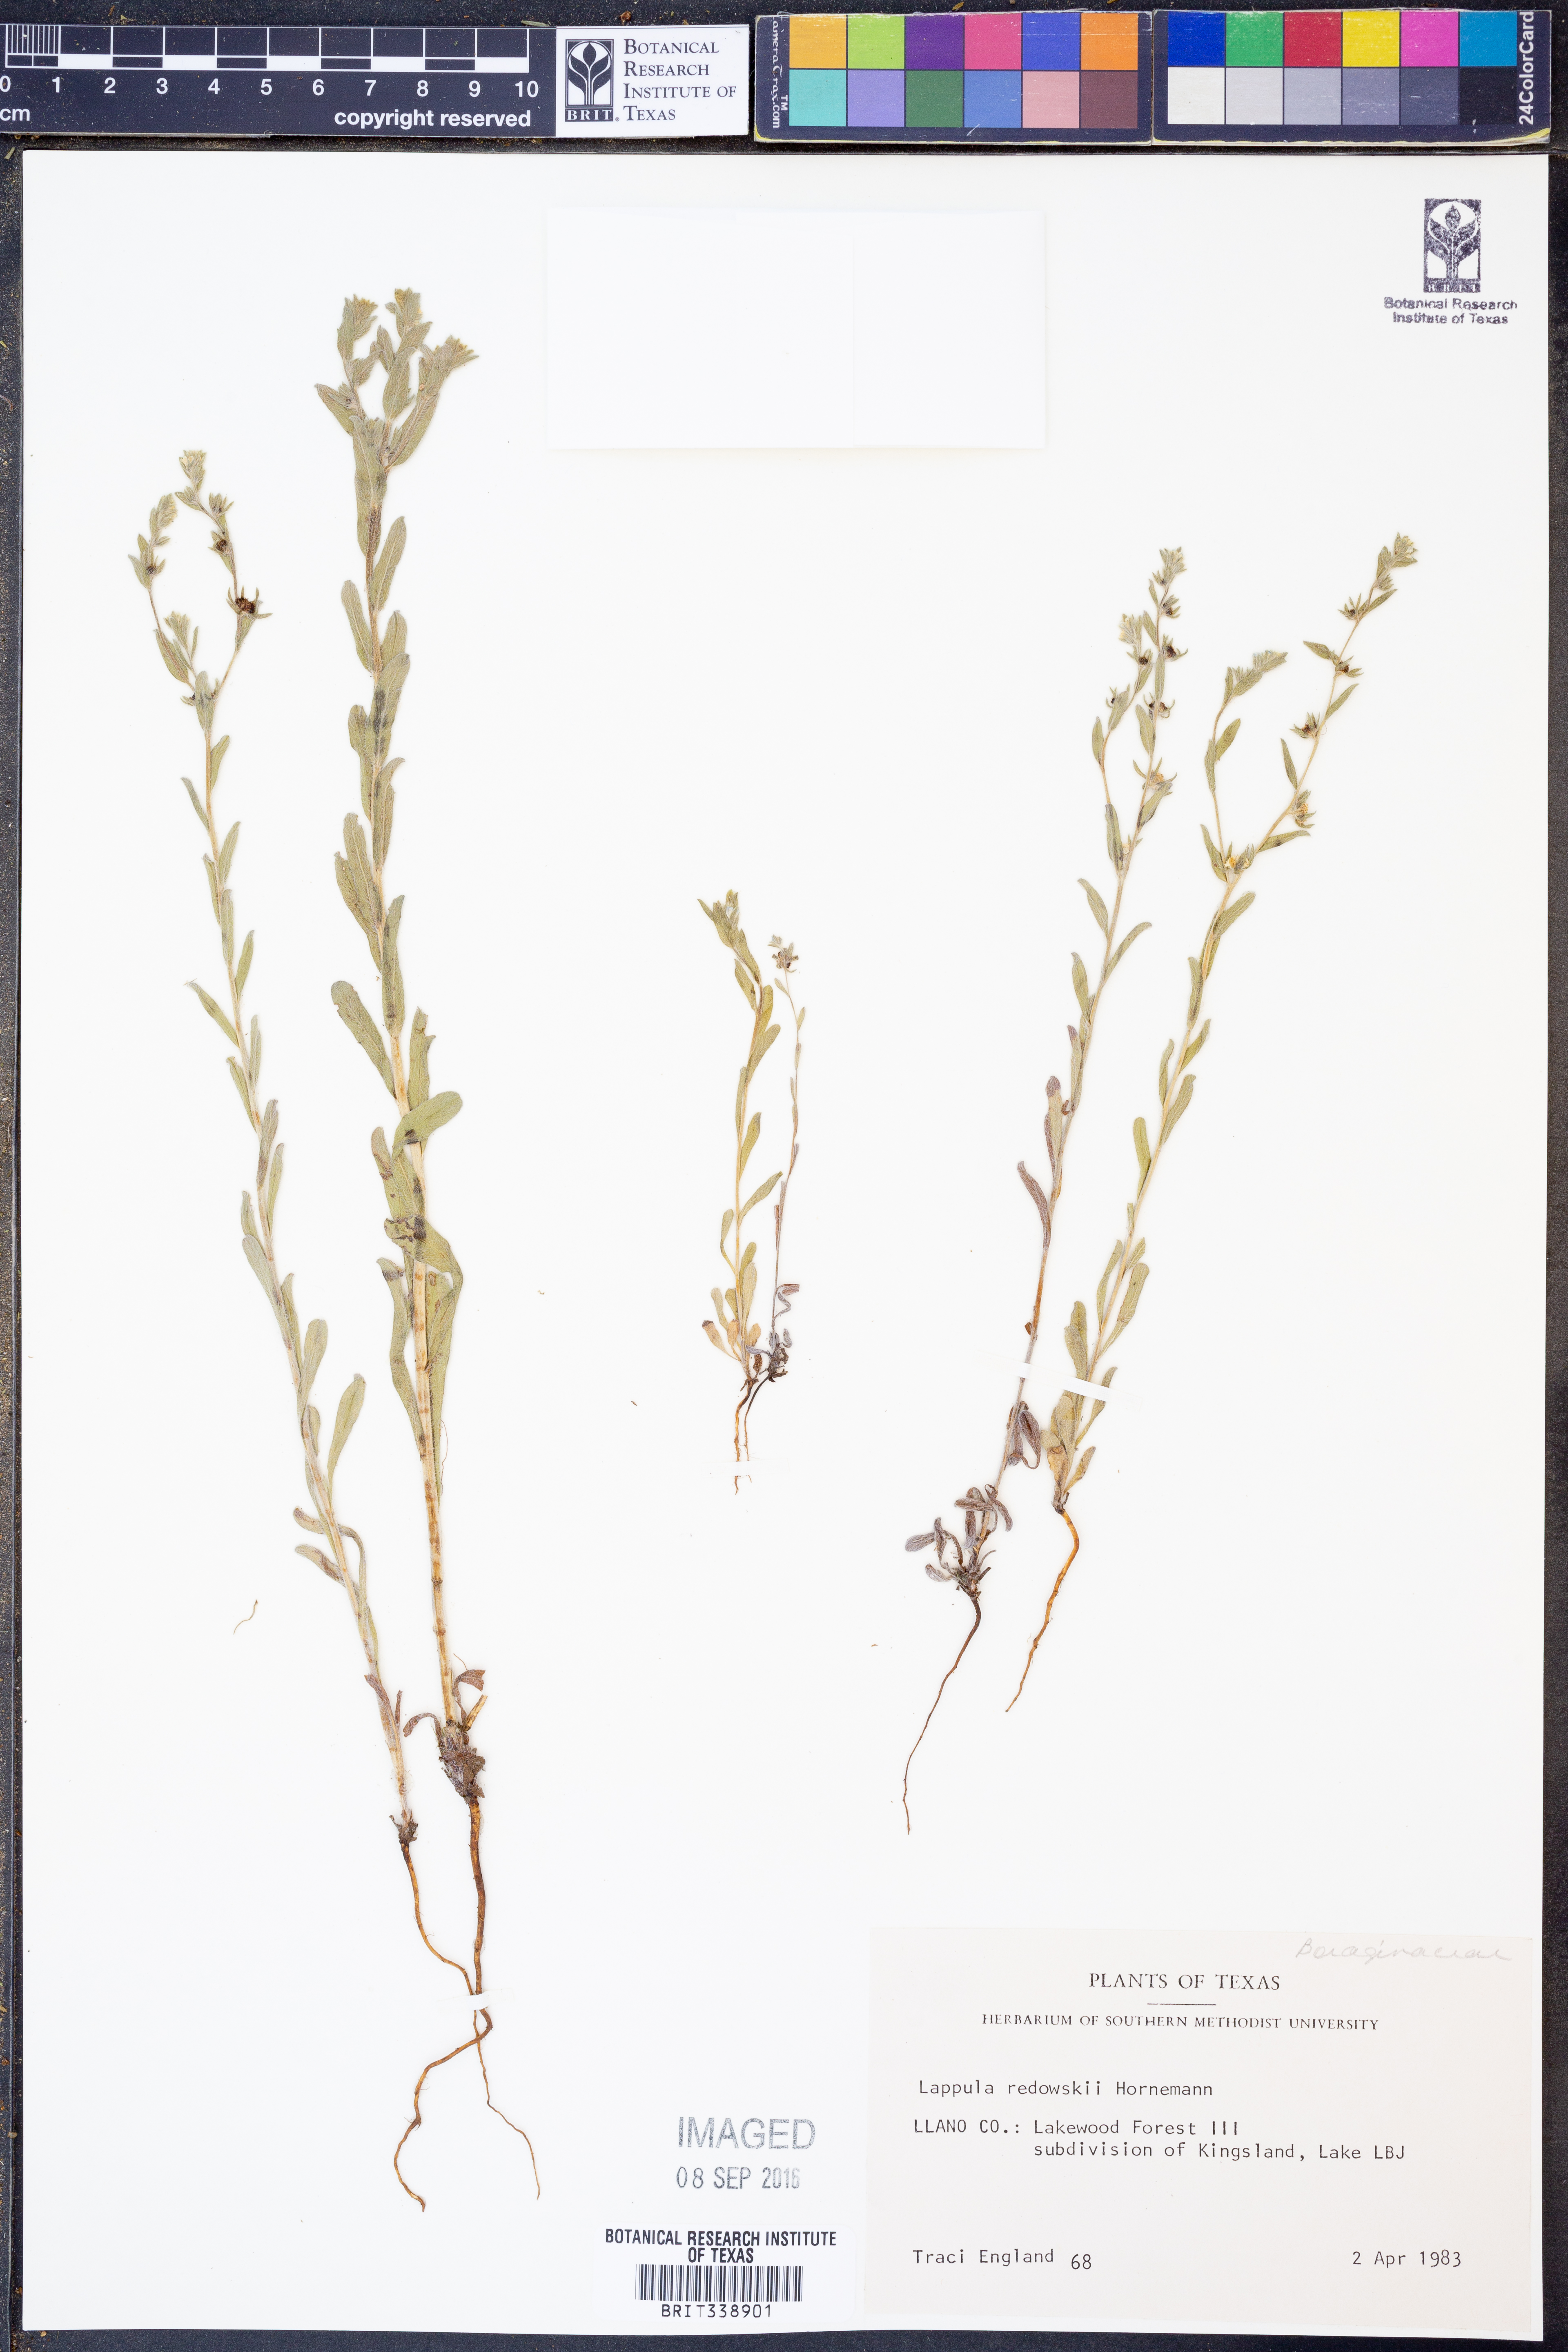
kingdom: Plantae
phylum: Tracheophyta
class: Magnoliopsida
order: Boraginales
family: Boraginaceae
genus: Lappula
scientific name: Lappula redowskii
